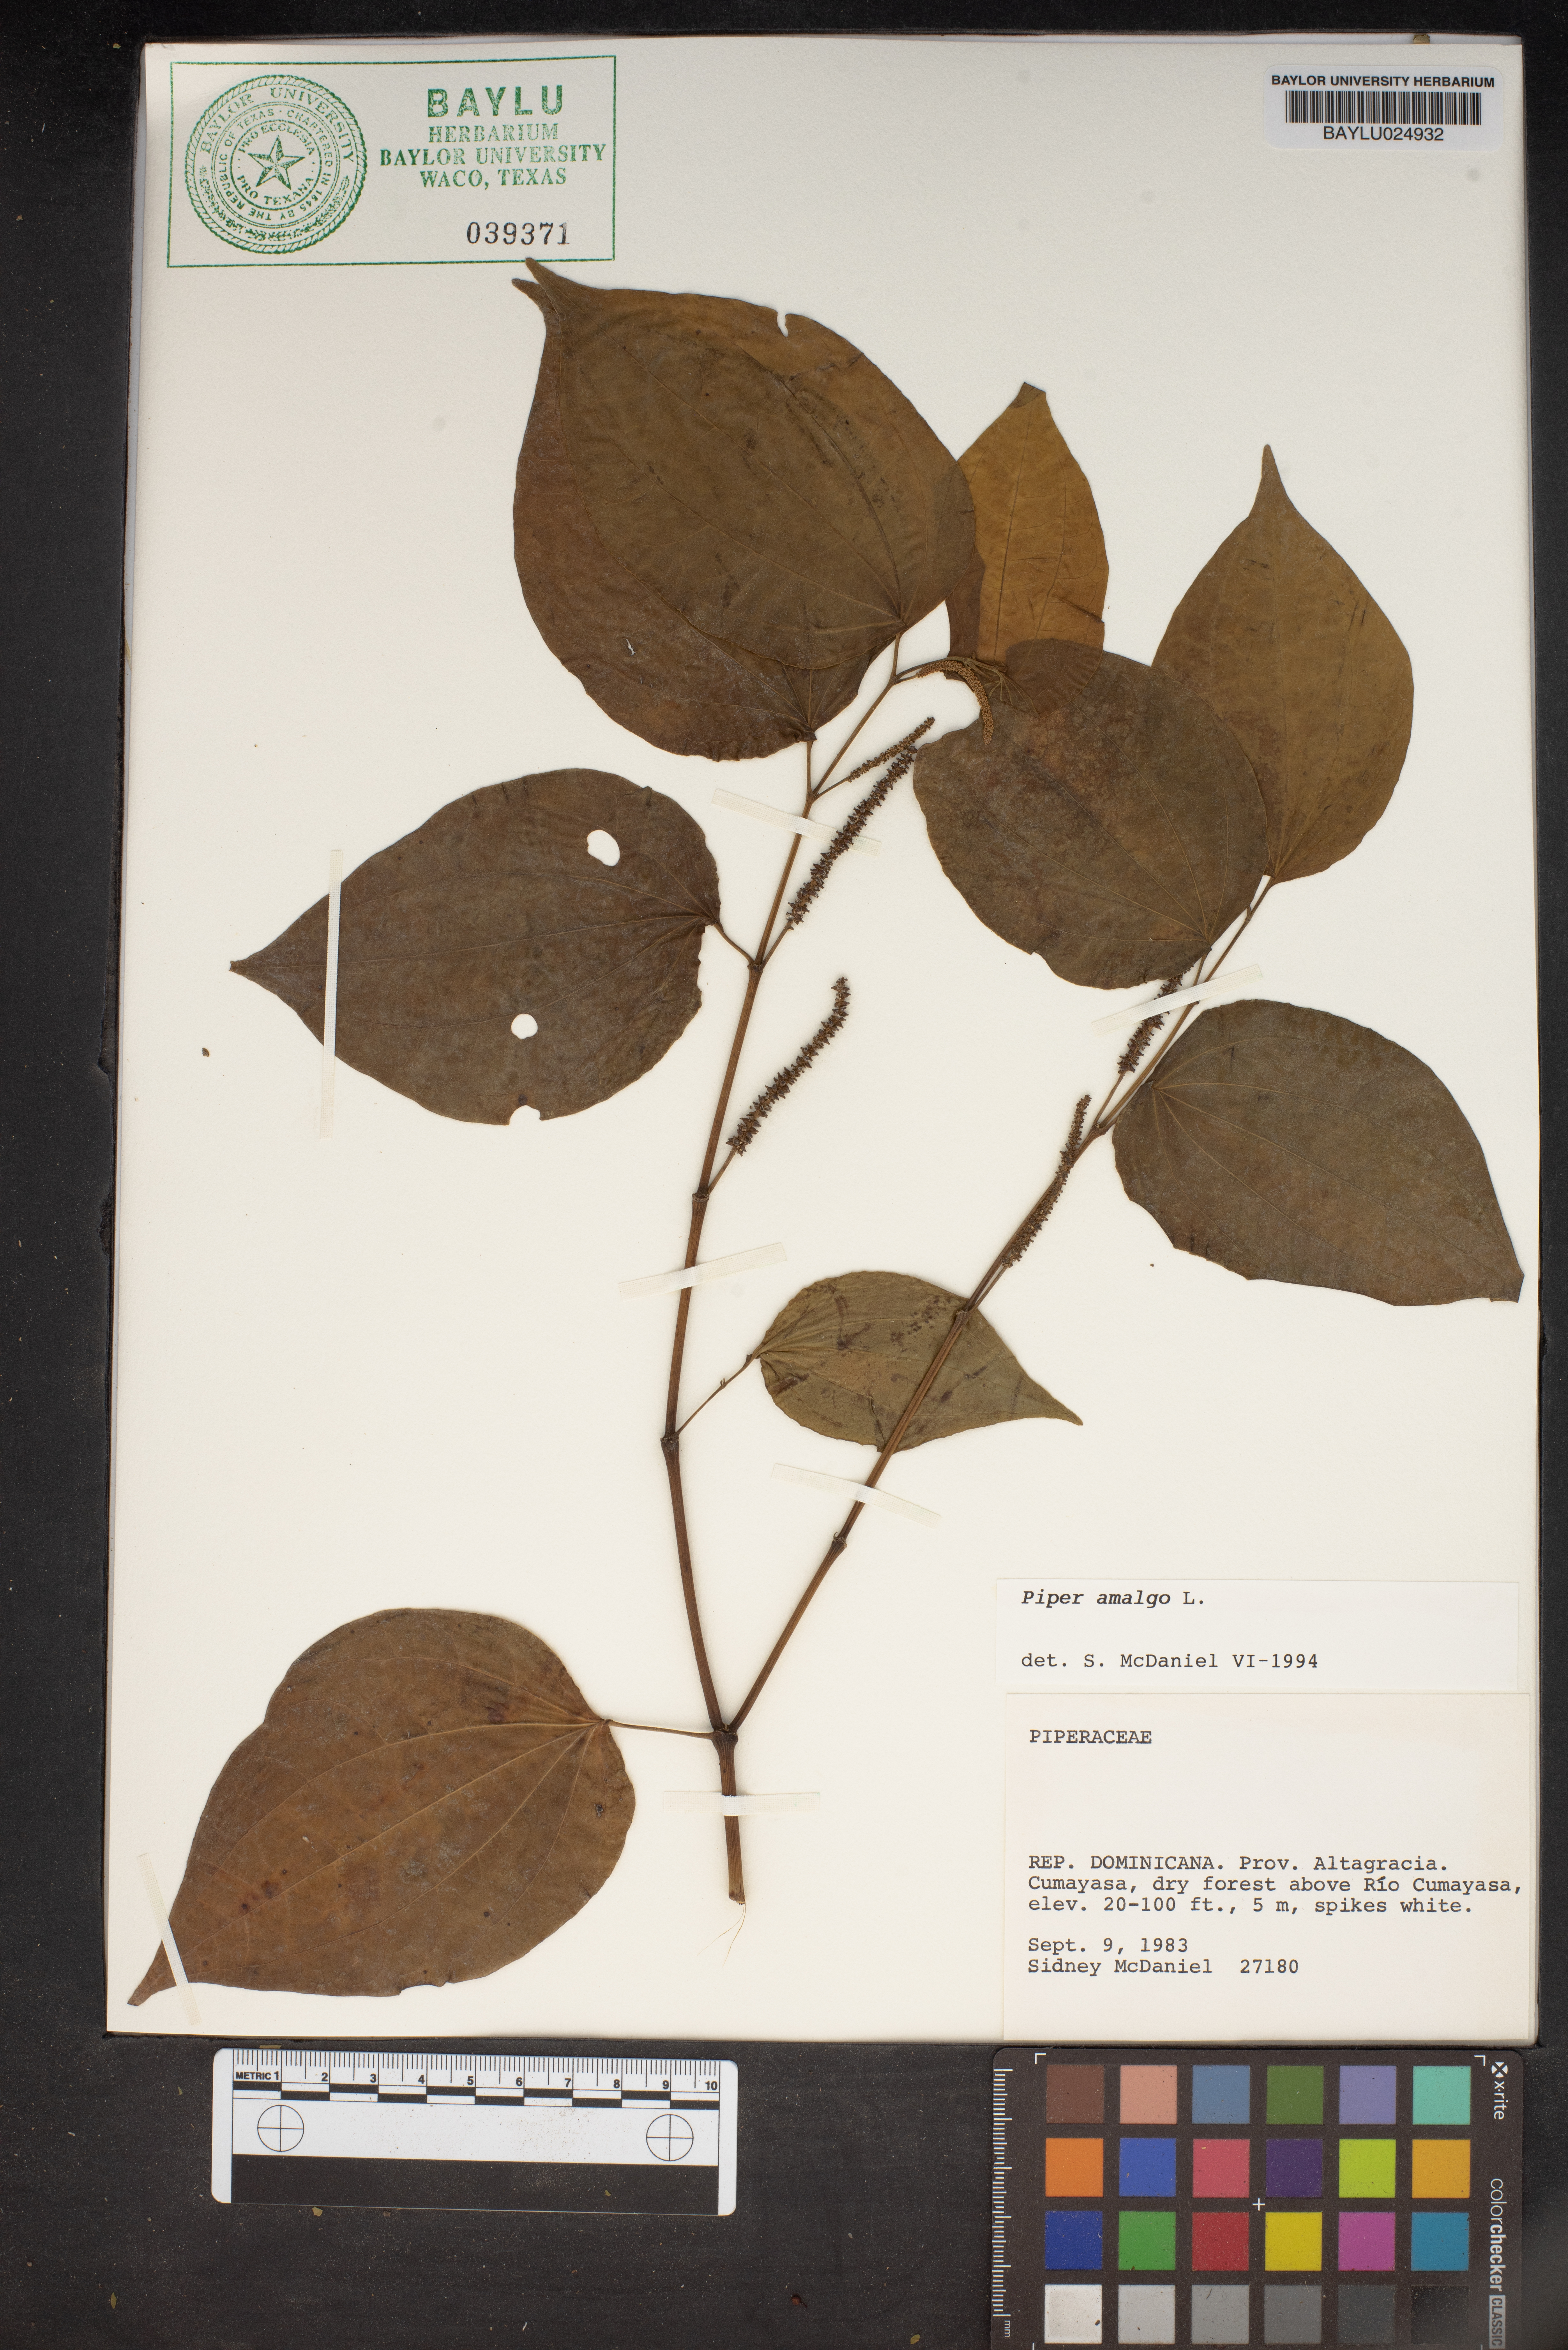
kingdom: Plantae
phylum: Tracheophyta
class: Magnoliopsida
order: Piperales
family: Piperaceae
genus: Piper
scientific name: Piper amalago
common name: Pepper-elder
